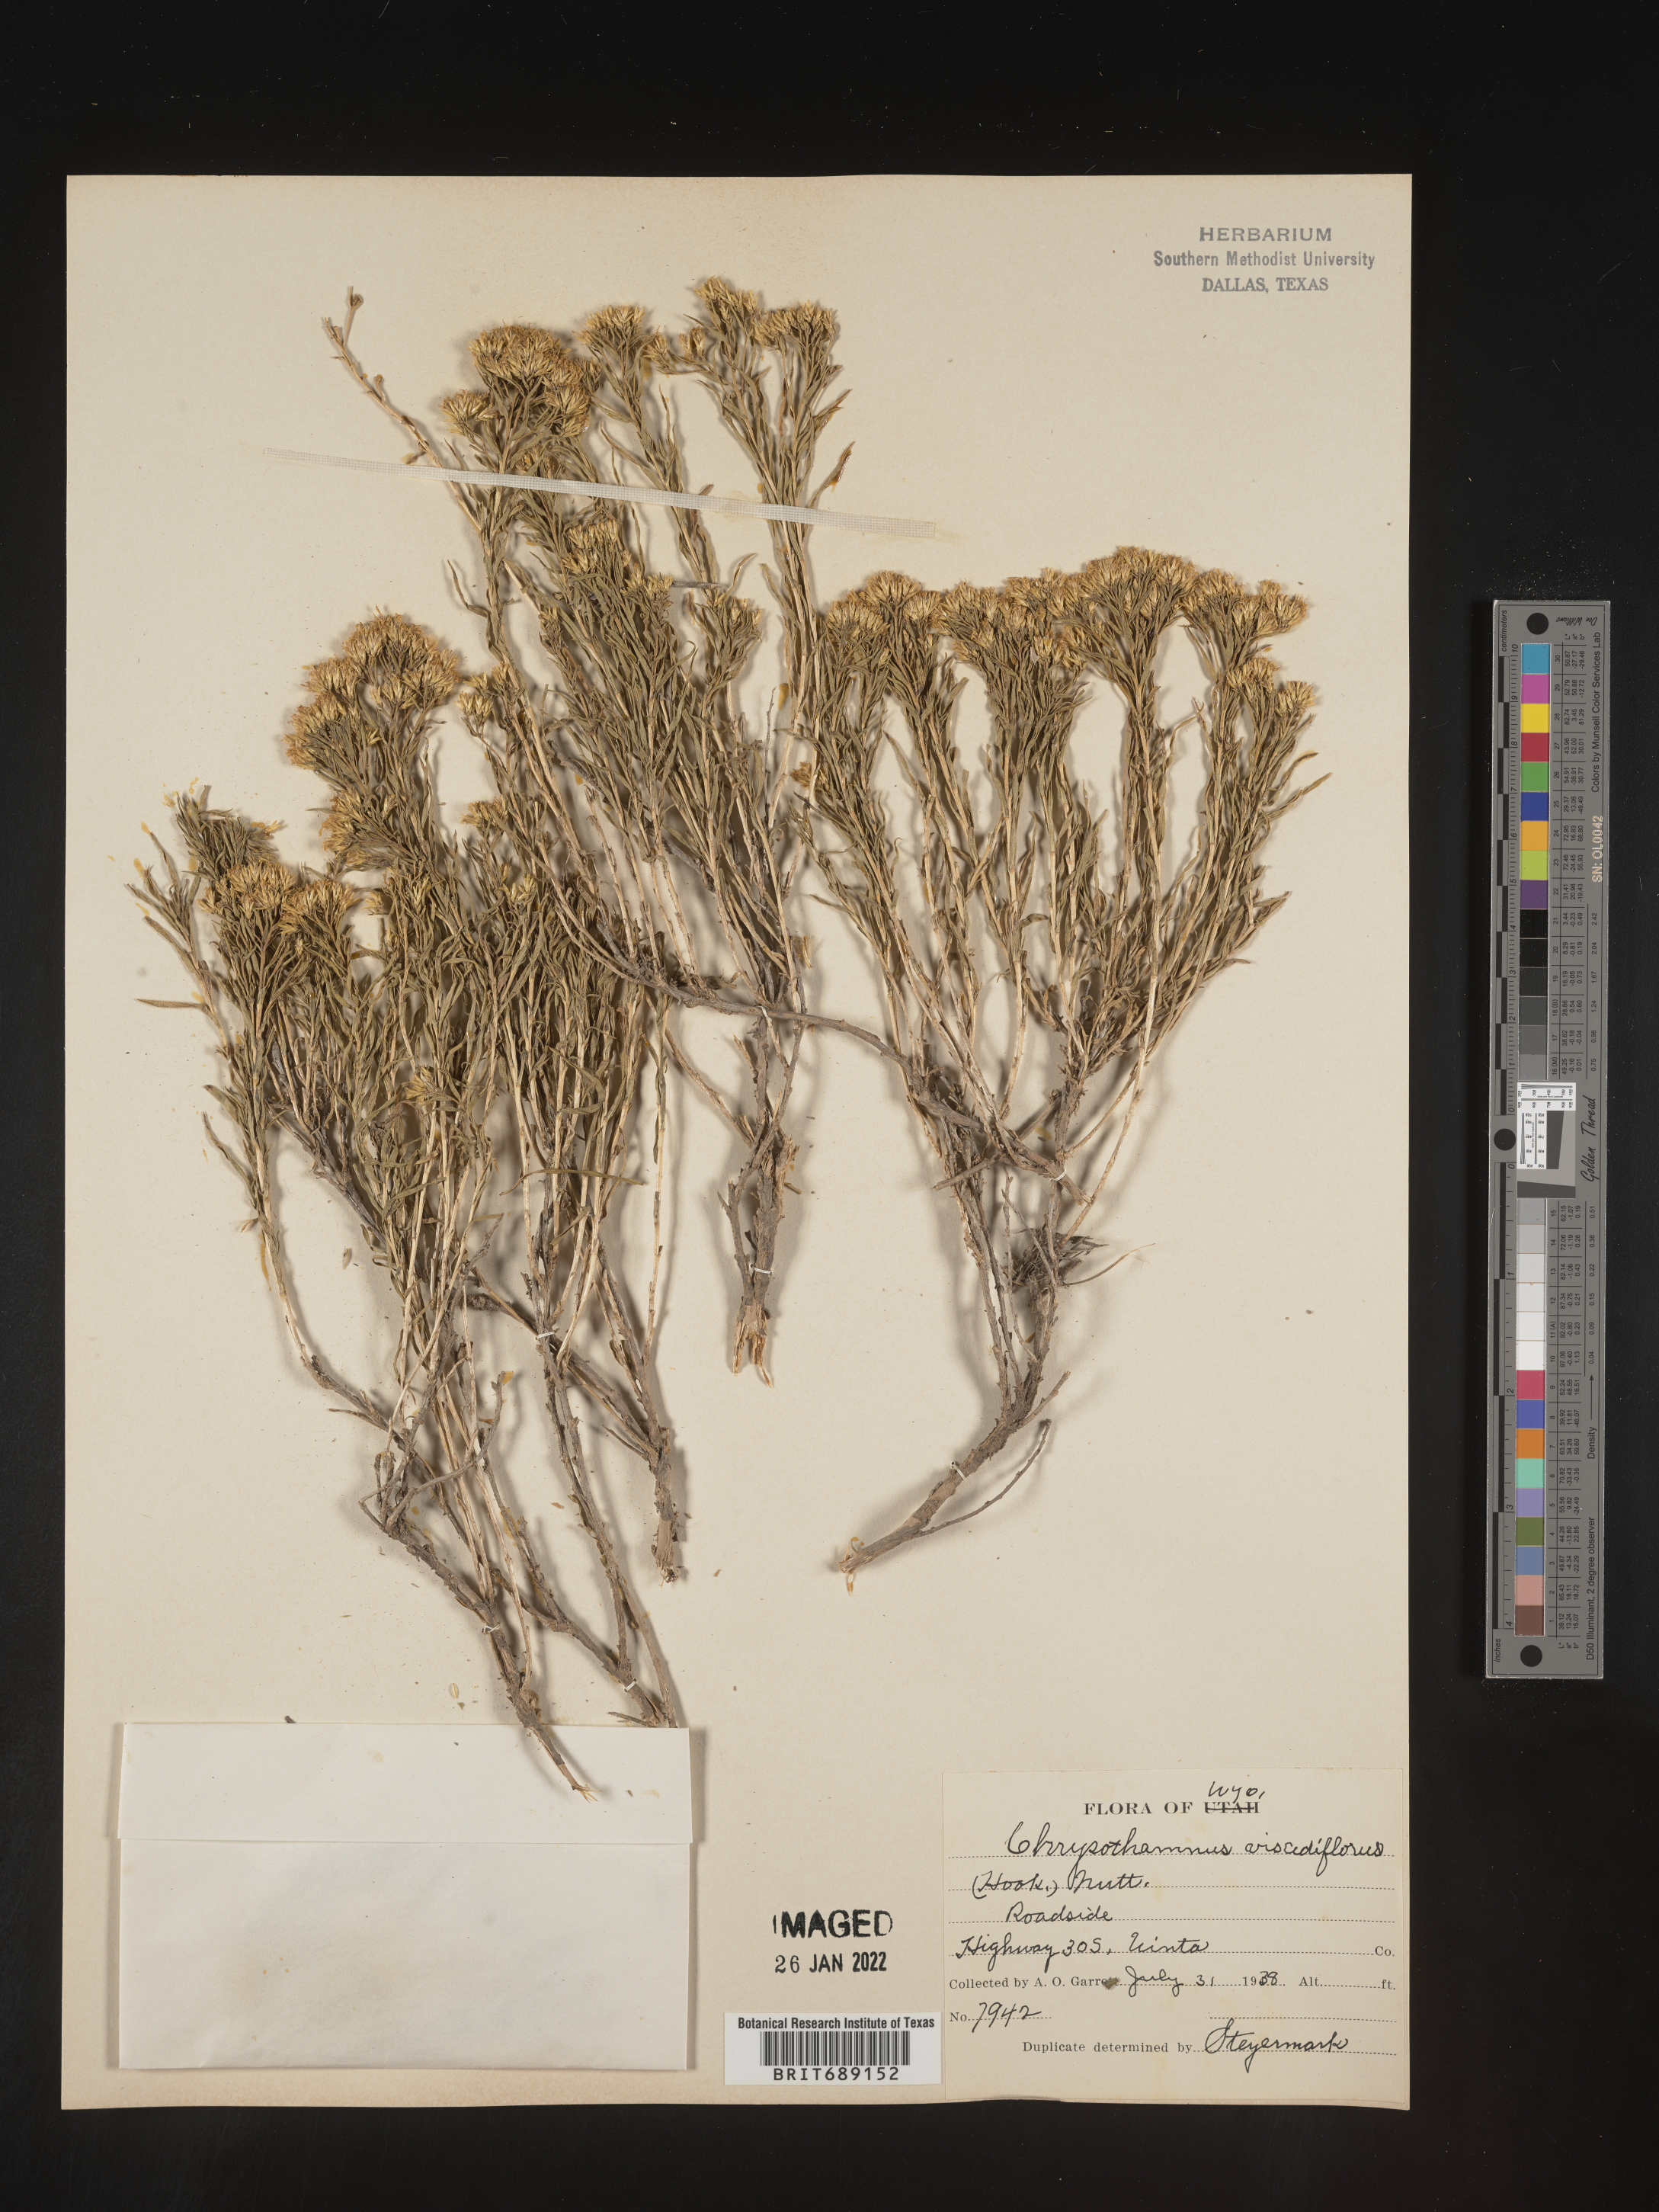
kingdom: Plantae
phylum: Tracheophyta
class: Magnoliopsida
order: Asterales
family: Asteraceae
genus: Chrysothamnus
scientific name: Chrysothamnus viscidiflorus
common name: Yellow rabbitbrush
